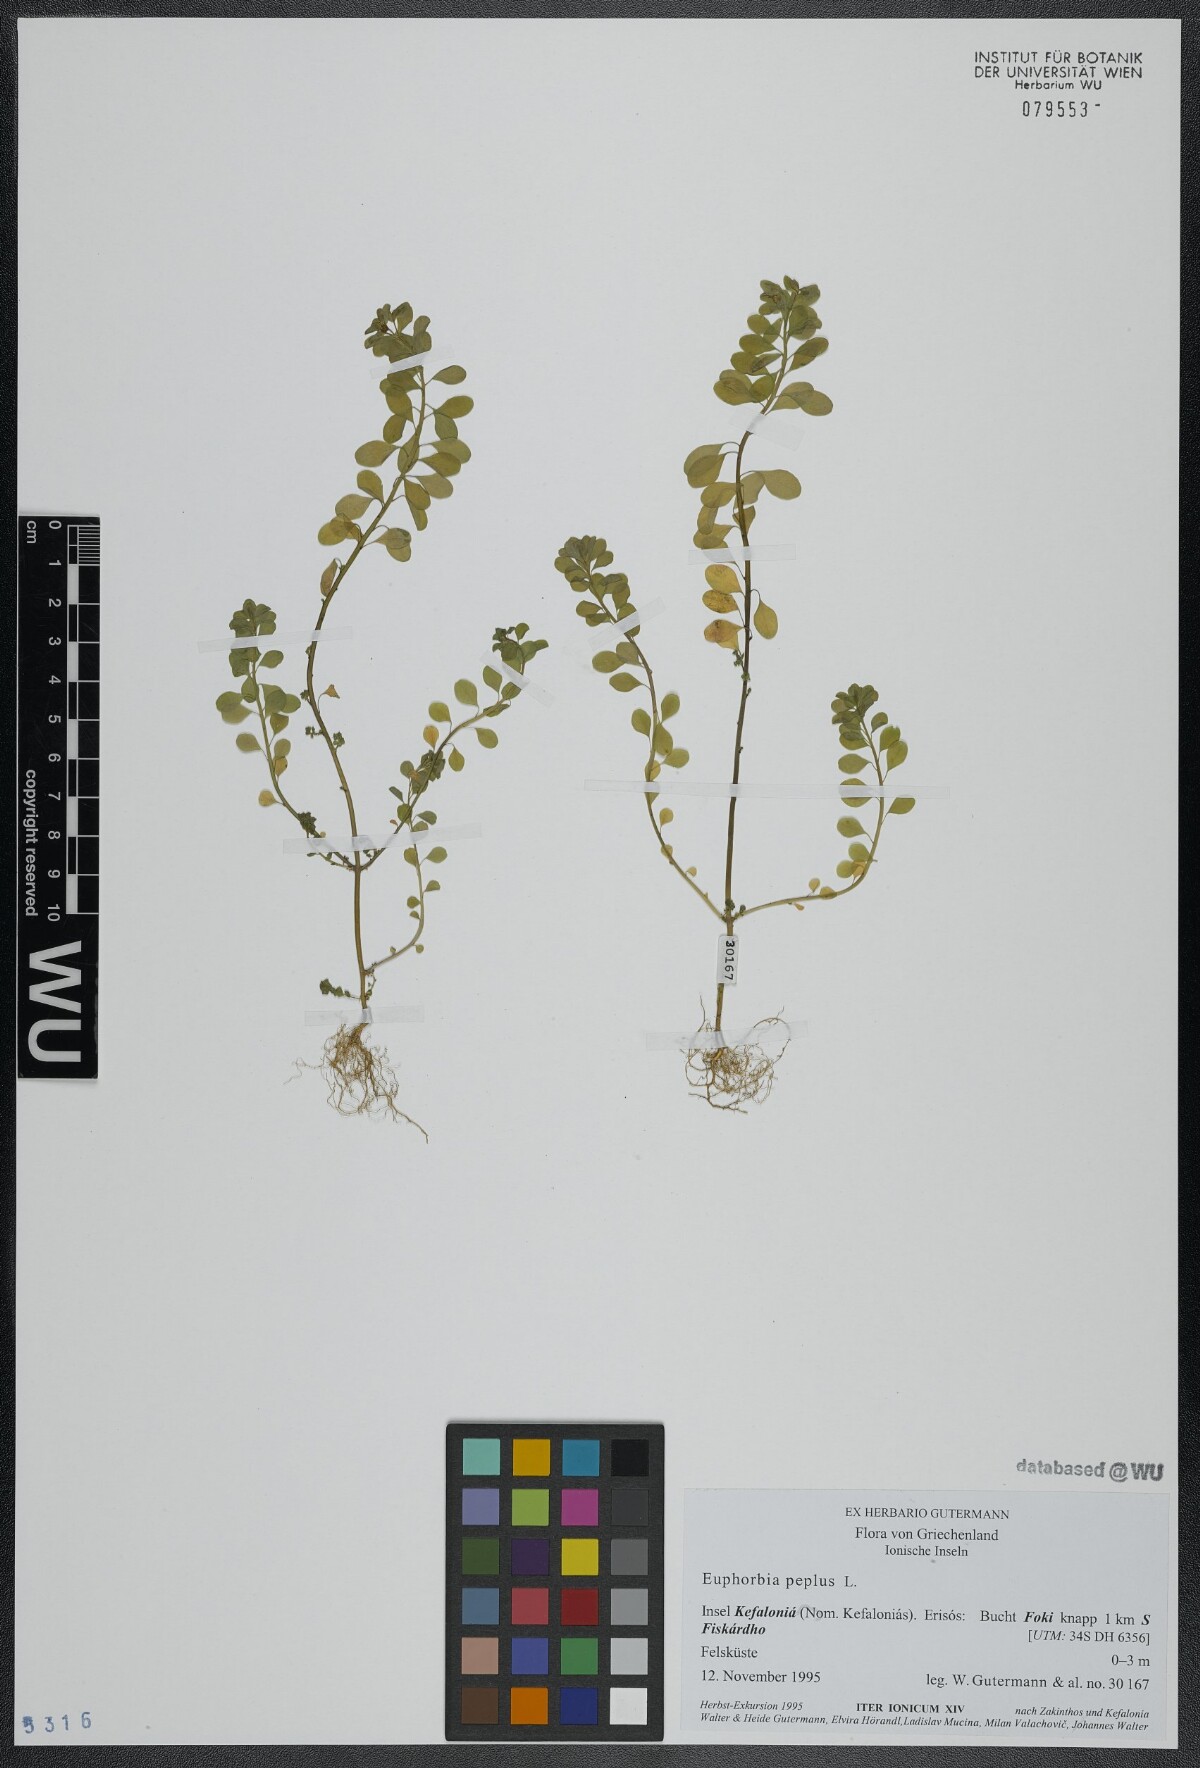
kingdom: Plantae
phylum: Tracheophyta
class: Magnoliopsida
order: Malpighiales
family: Euphorbiaceae
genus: Euphorbia
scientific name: Euphorbia peplus
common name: Petty spurge
